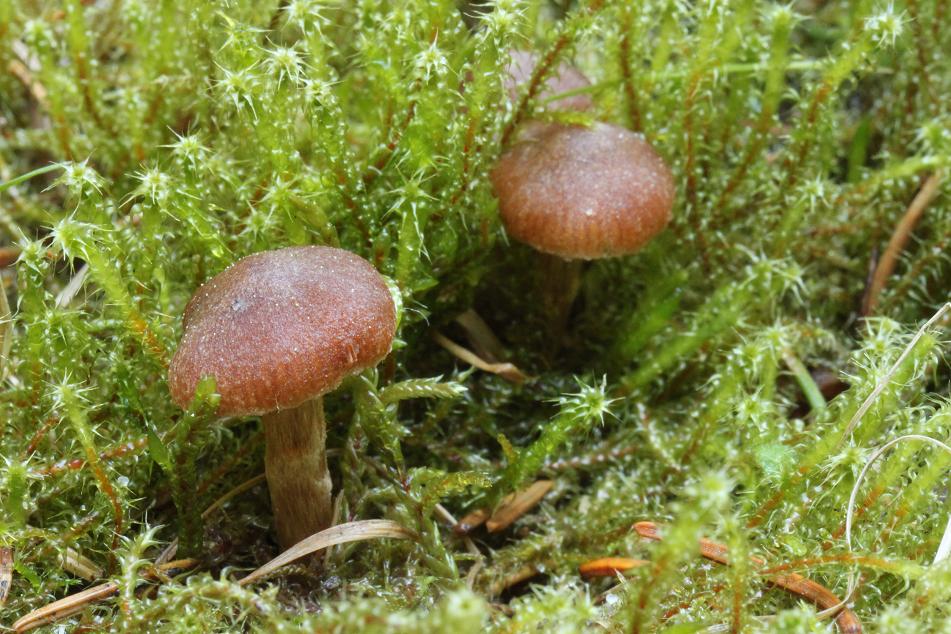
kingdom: Fungi
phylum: Basidiomycota
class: Agaricomycetes
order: Agaricales
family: Cortinariaceae
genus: Cortinarius
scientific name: Cortinarius
